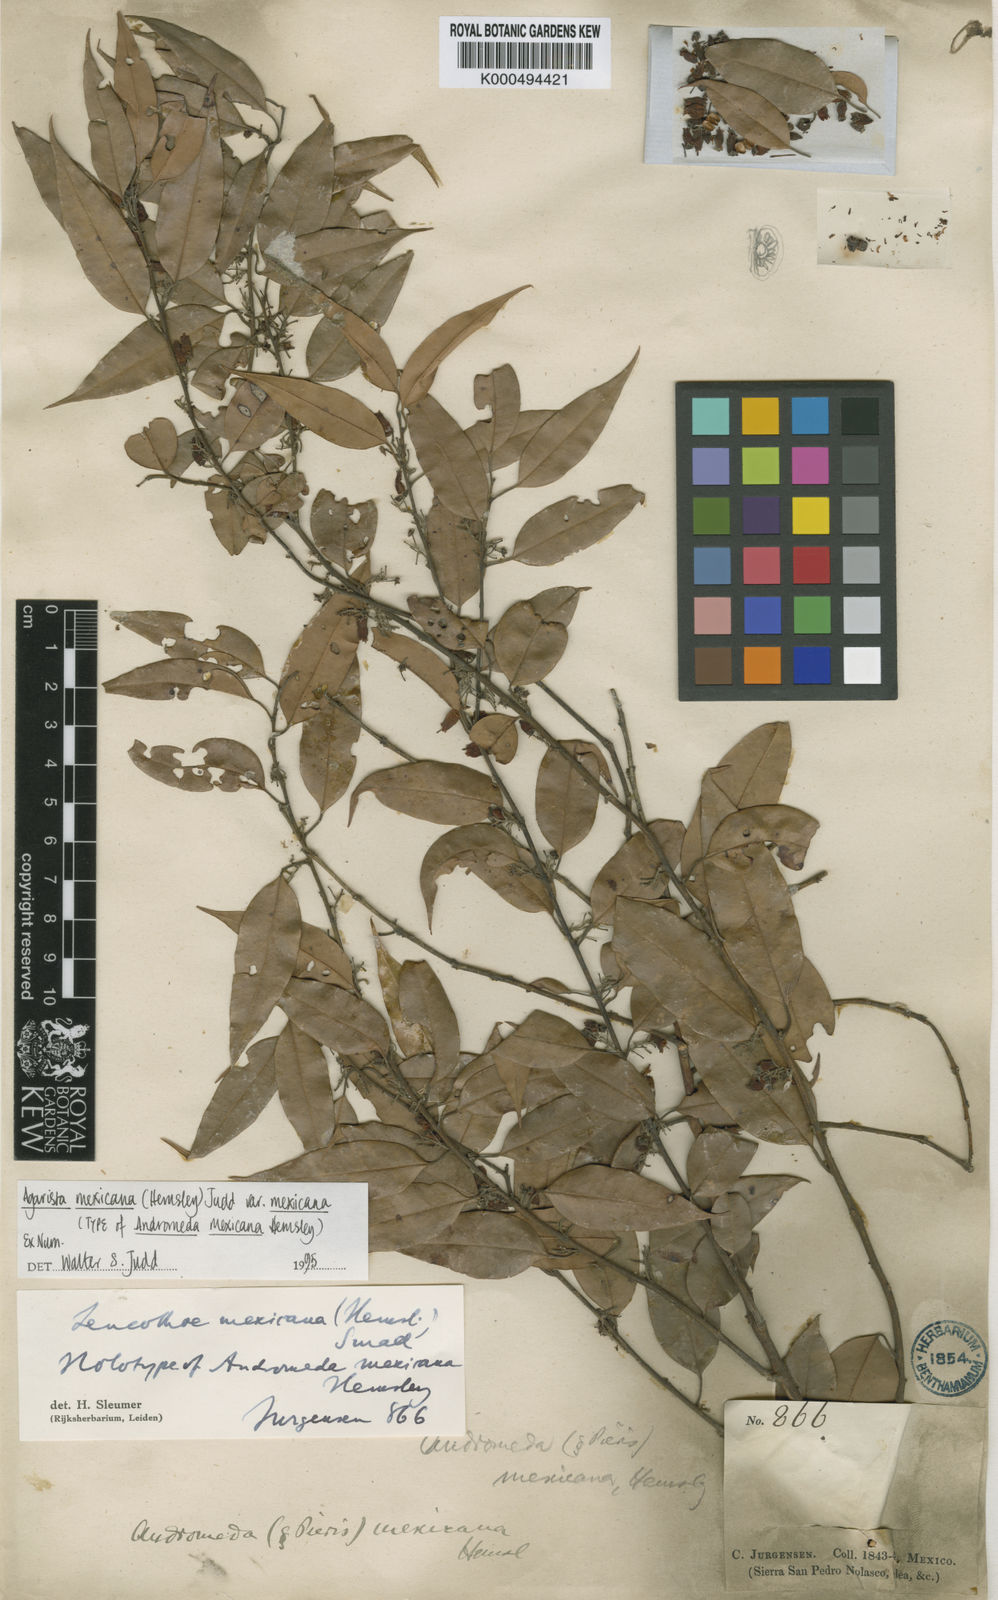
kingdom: Plantae
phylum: Tracheophyta
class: Magnoliopsida
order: Ericales
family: Ericaceae
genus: Agarista
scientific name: Agarista mexicana
